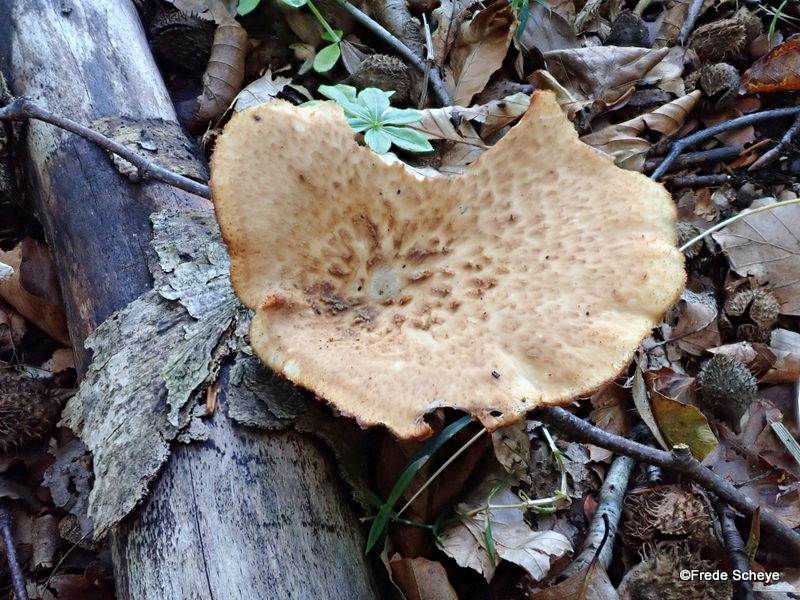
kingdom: Fungi
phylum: Basidiomycota
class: Agaricomycetes
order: Polyporales
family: Polyporaceae
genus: Cerioporus
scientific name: Cerioporus squamosus
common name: skællet stilkporesvamp
